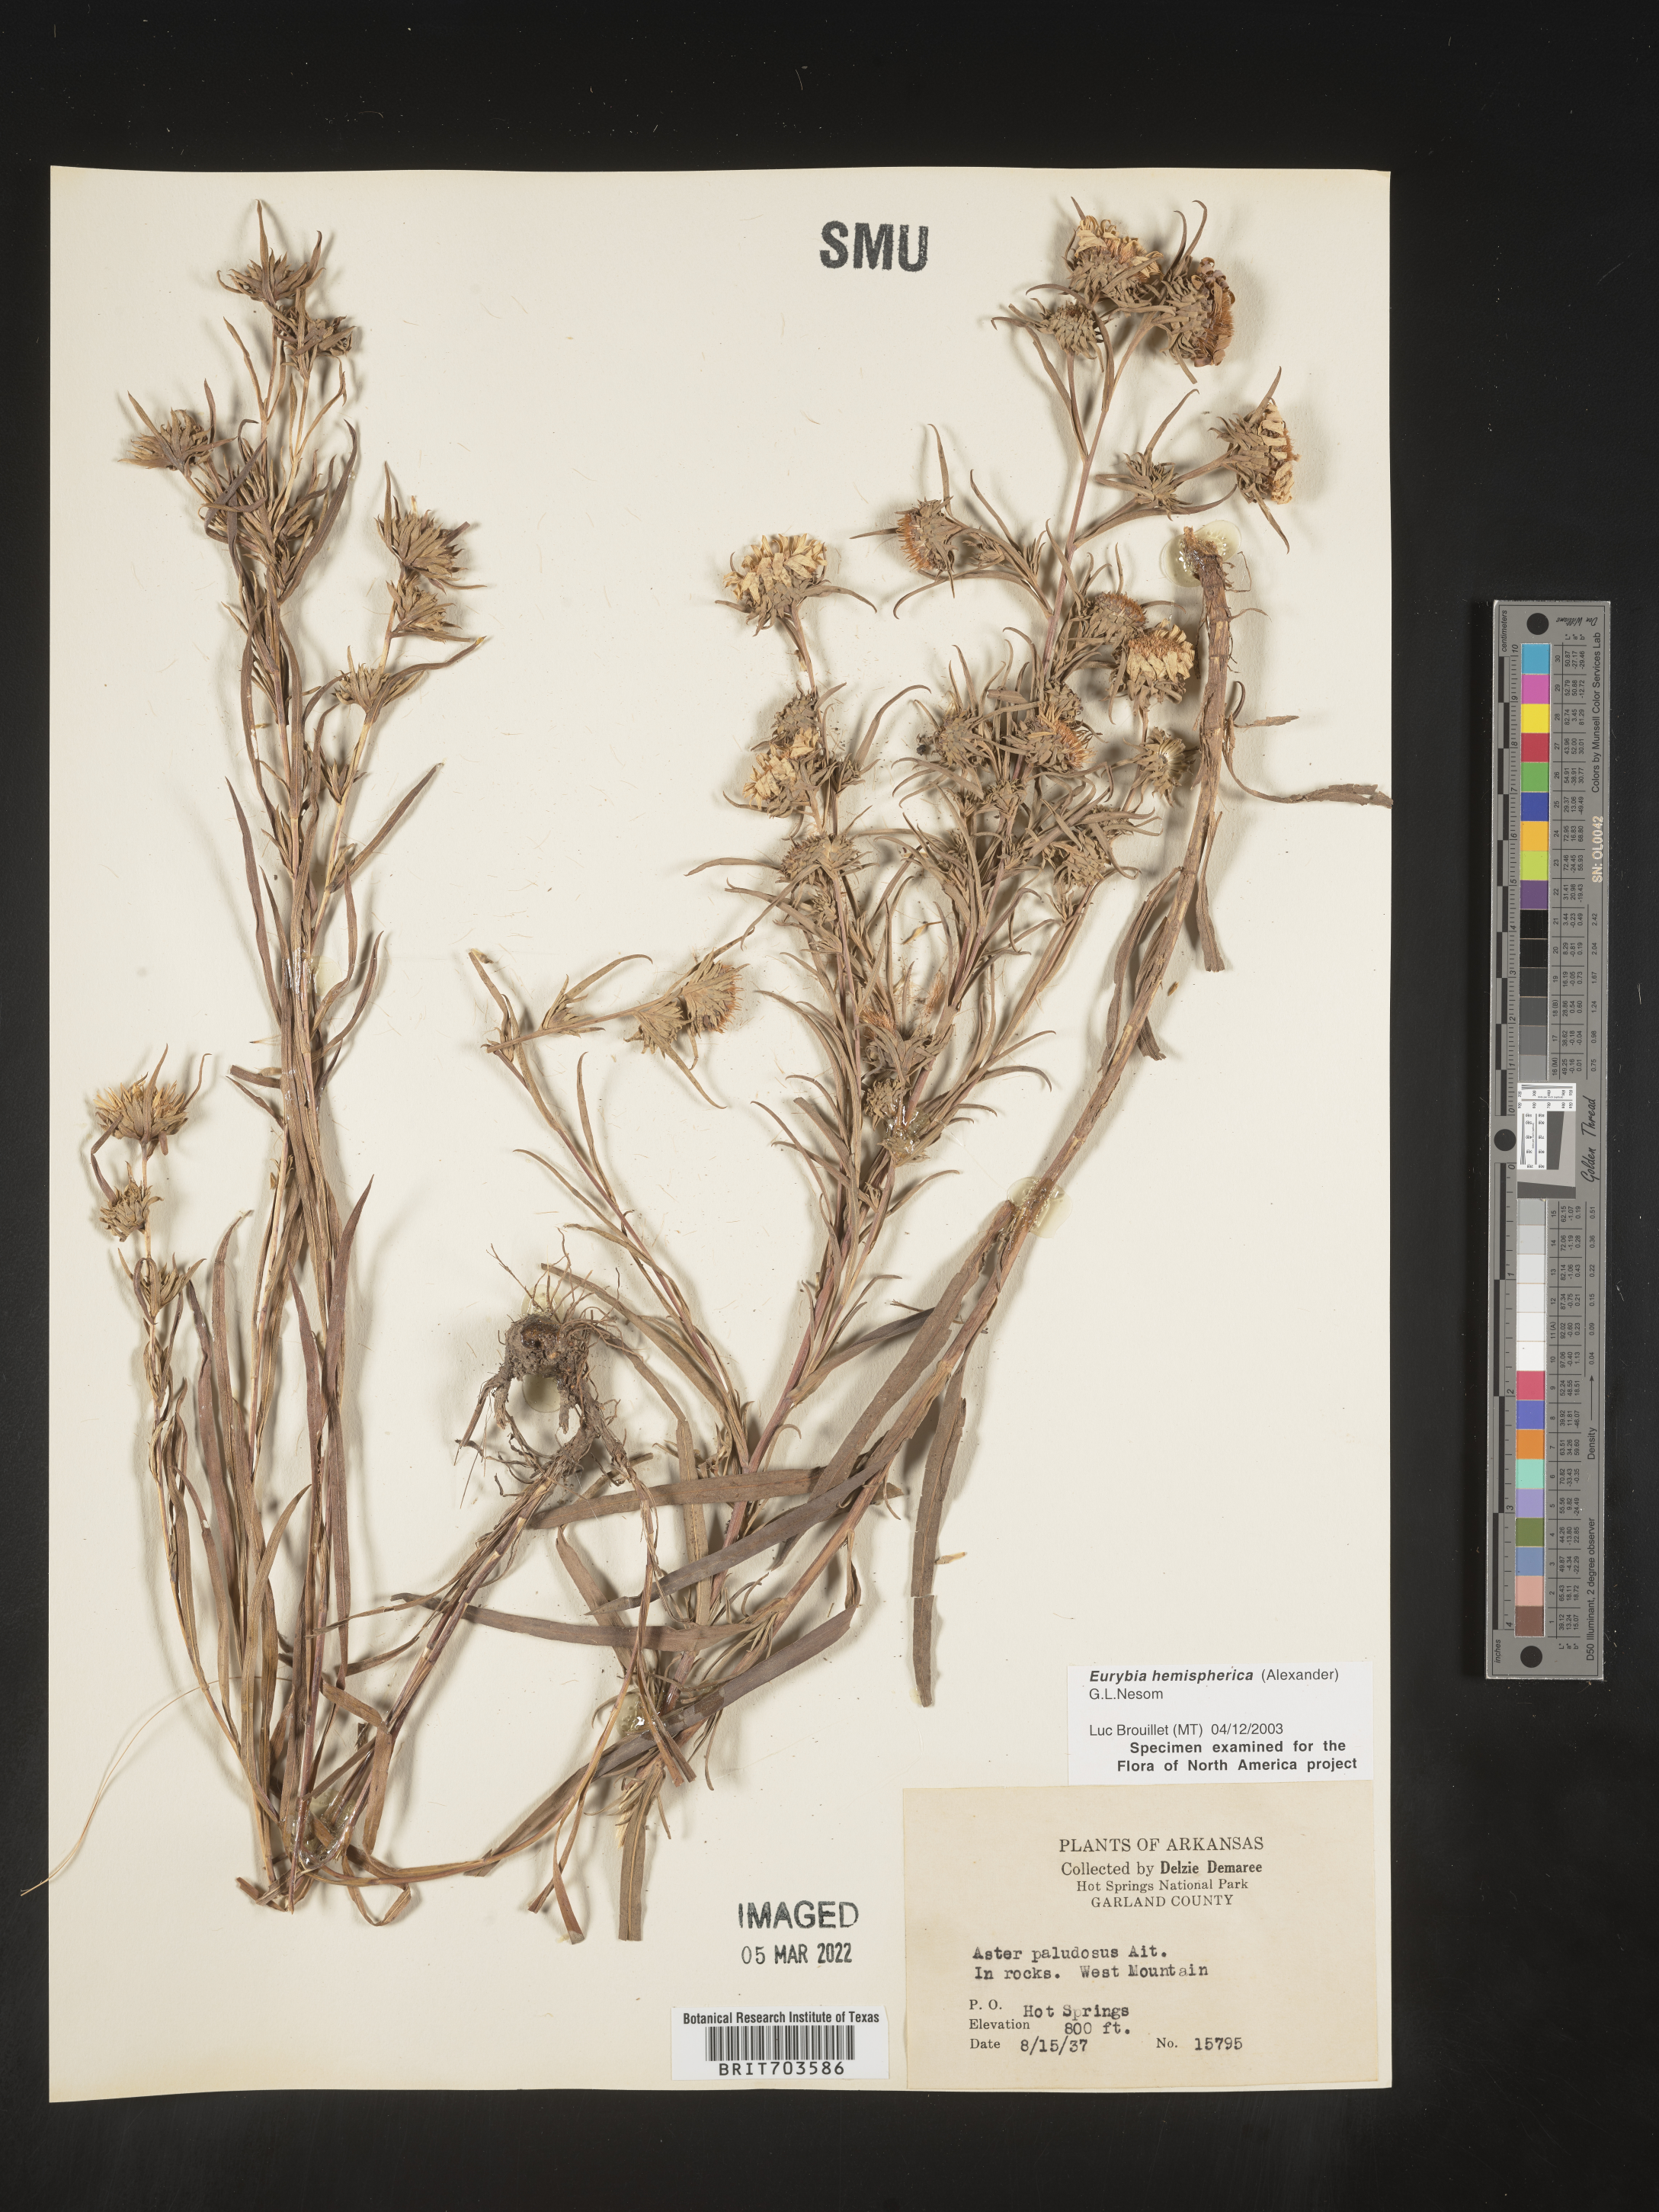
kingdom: Plantae
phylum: Tracheophyta
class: Magnoliopsida
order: Asterales
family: Asteraceae
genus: Eurybia
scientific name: Eurybia hemispherica
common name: Showy aster
